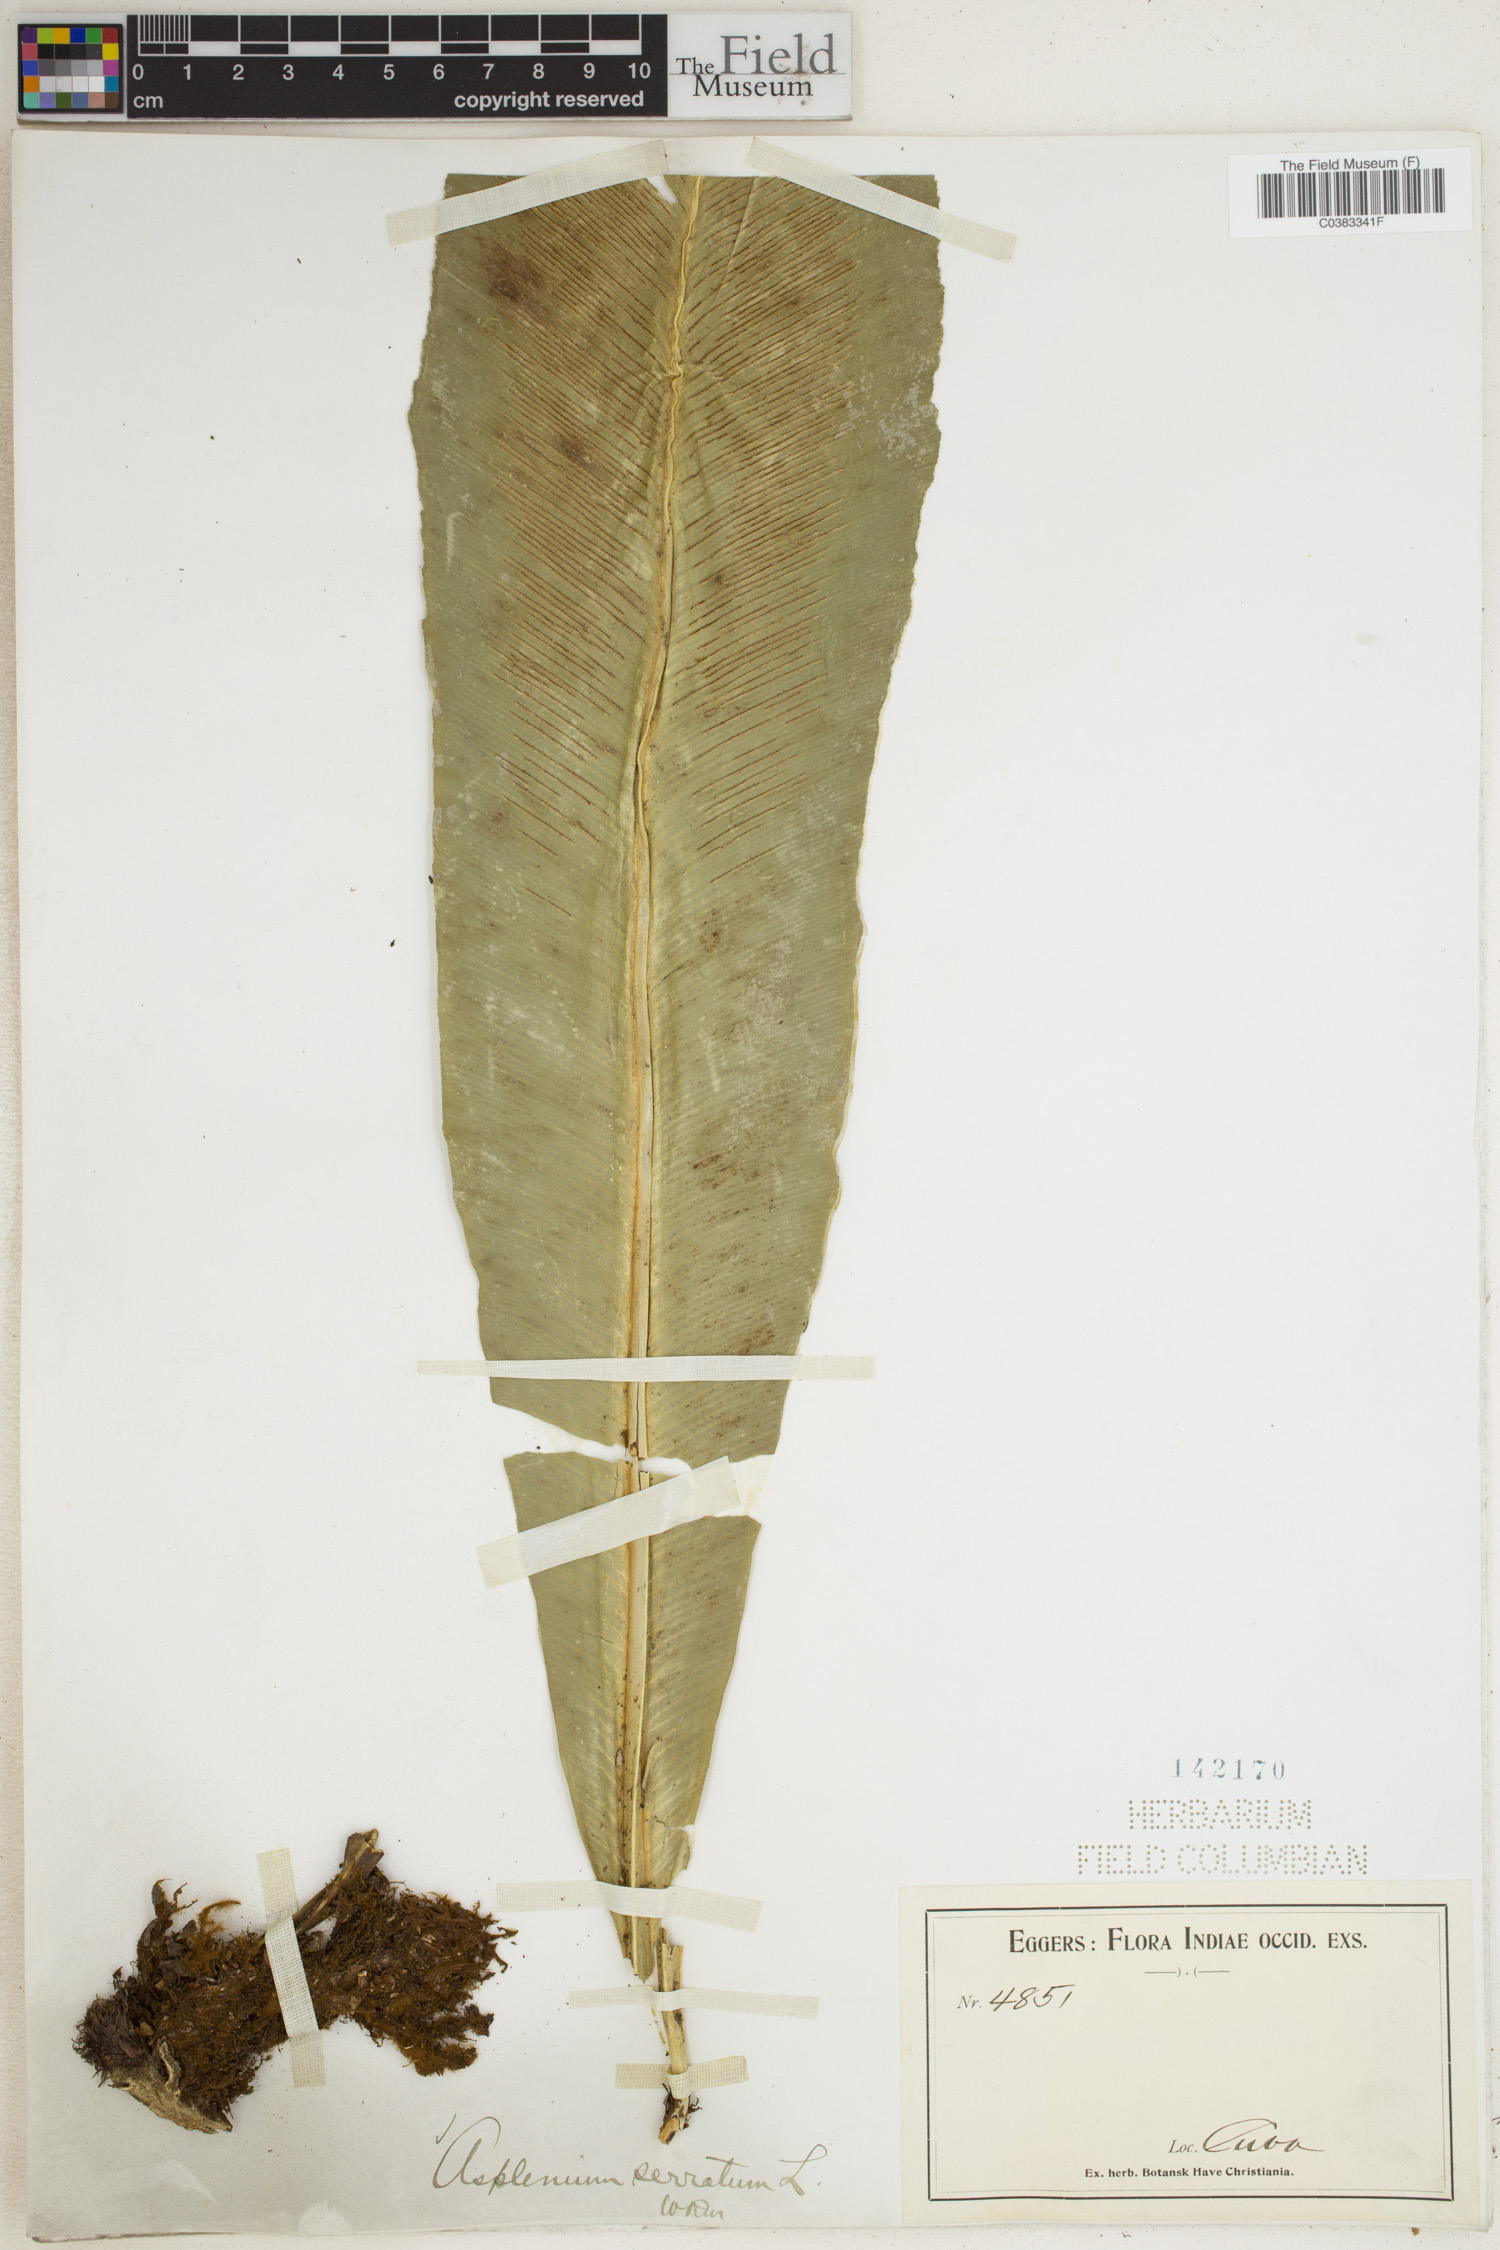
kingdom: Plantae
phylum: Tracheophyta
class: Polypodiopsida
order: Polypodiales
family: Aspleniaceae
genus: Asplenium
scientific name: Asplenium serratum
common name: Wild birdnest fern
